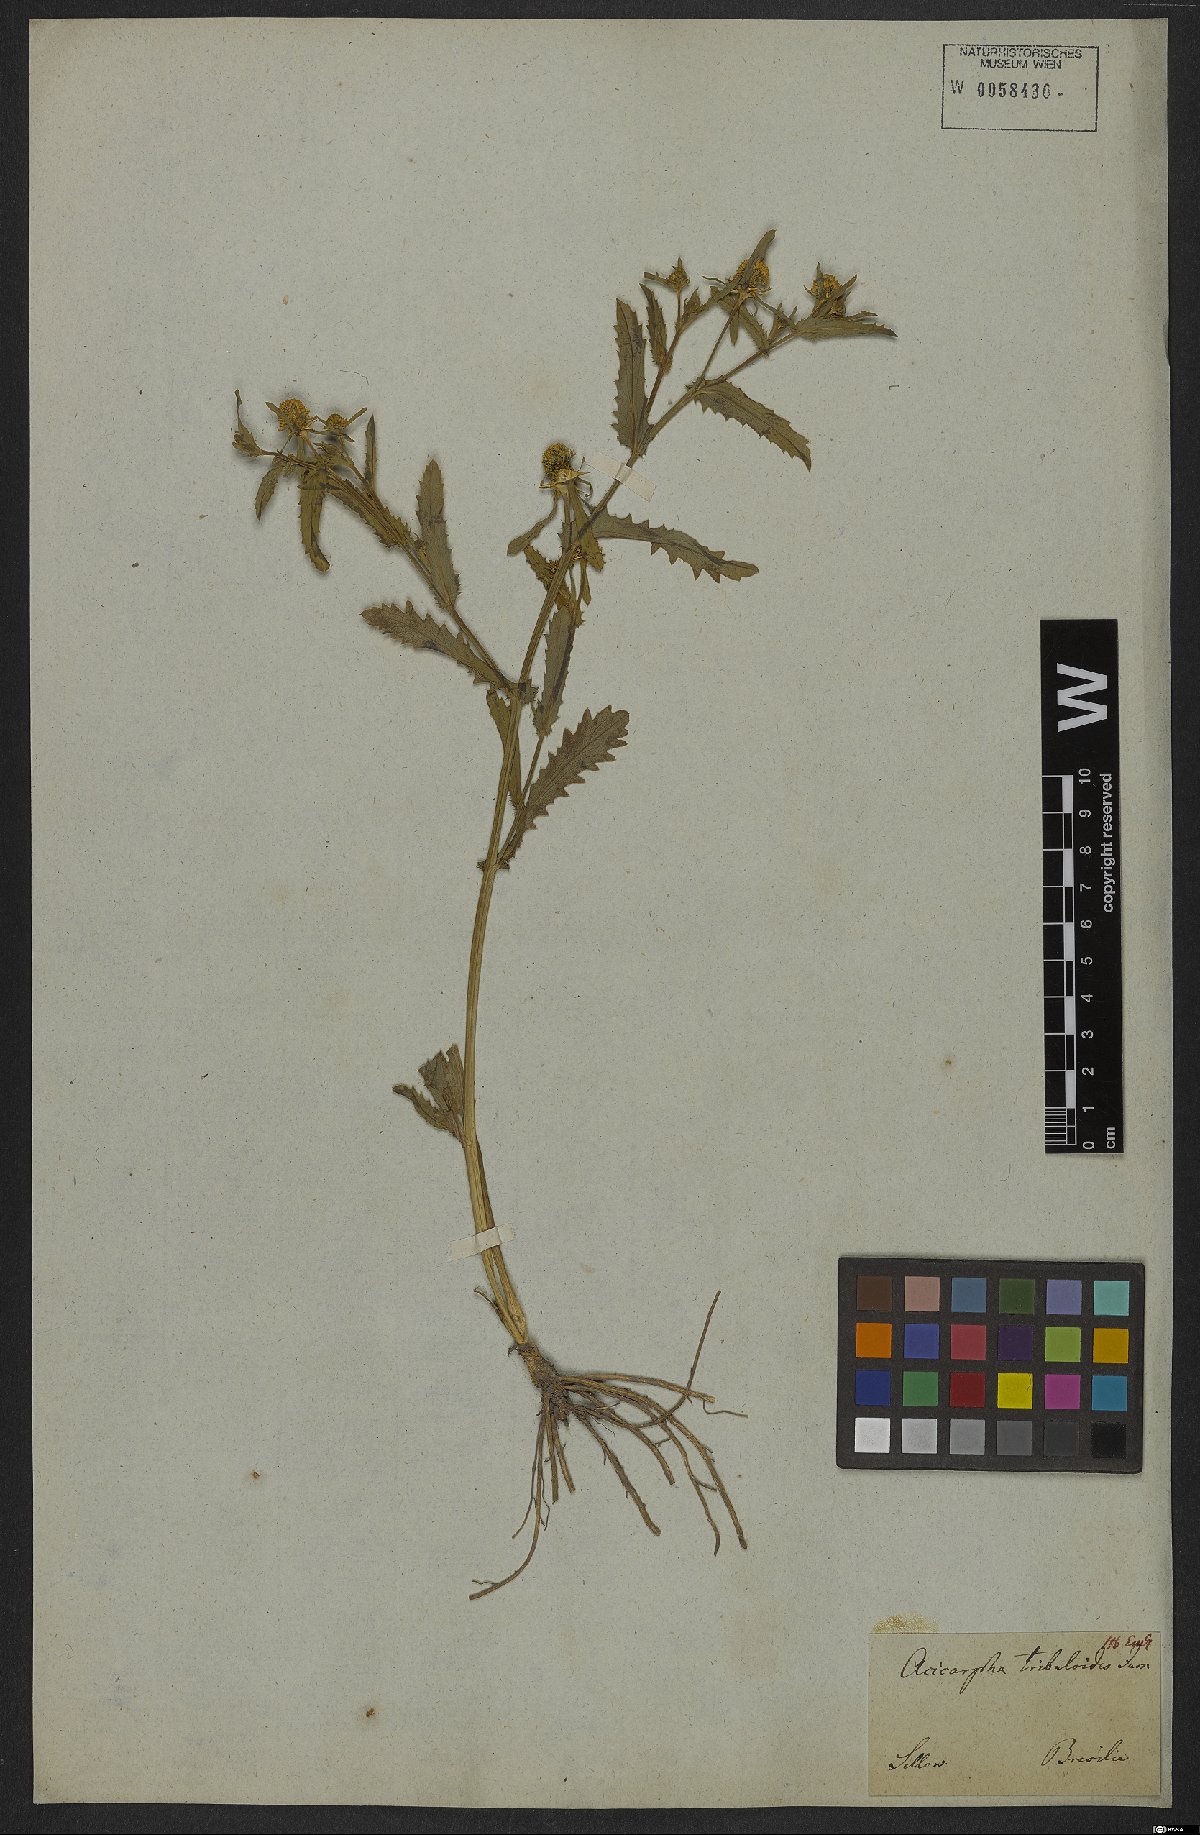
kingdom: Plantae
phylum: Tracheophyta
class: Magnoliopsida
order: Asterales
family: Calyceraceae
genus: Acicarpha
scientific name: Acicarpha tribuloides
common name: Madam gorgon
